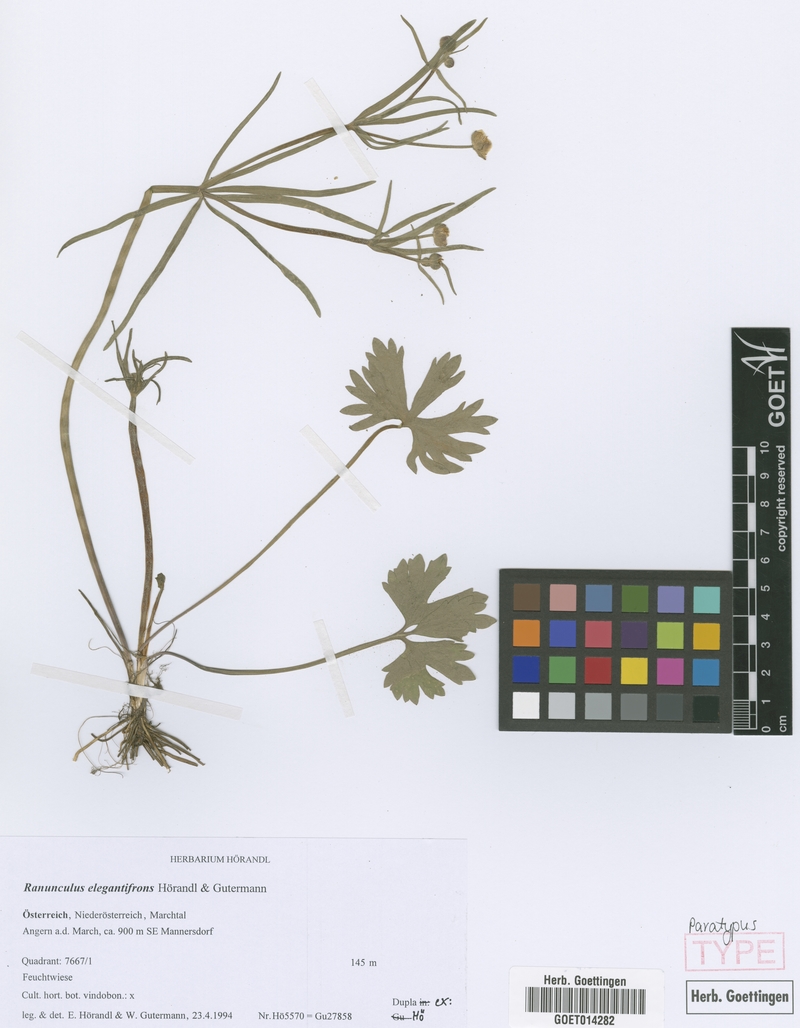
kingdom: Plantae
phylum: Tracheophyta
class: Magnoliopsida
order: Ranunculales
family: Ranunculaceae
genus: Ranunculus
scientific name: Ranunculus elegantifrons
